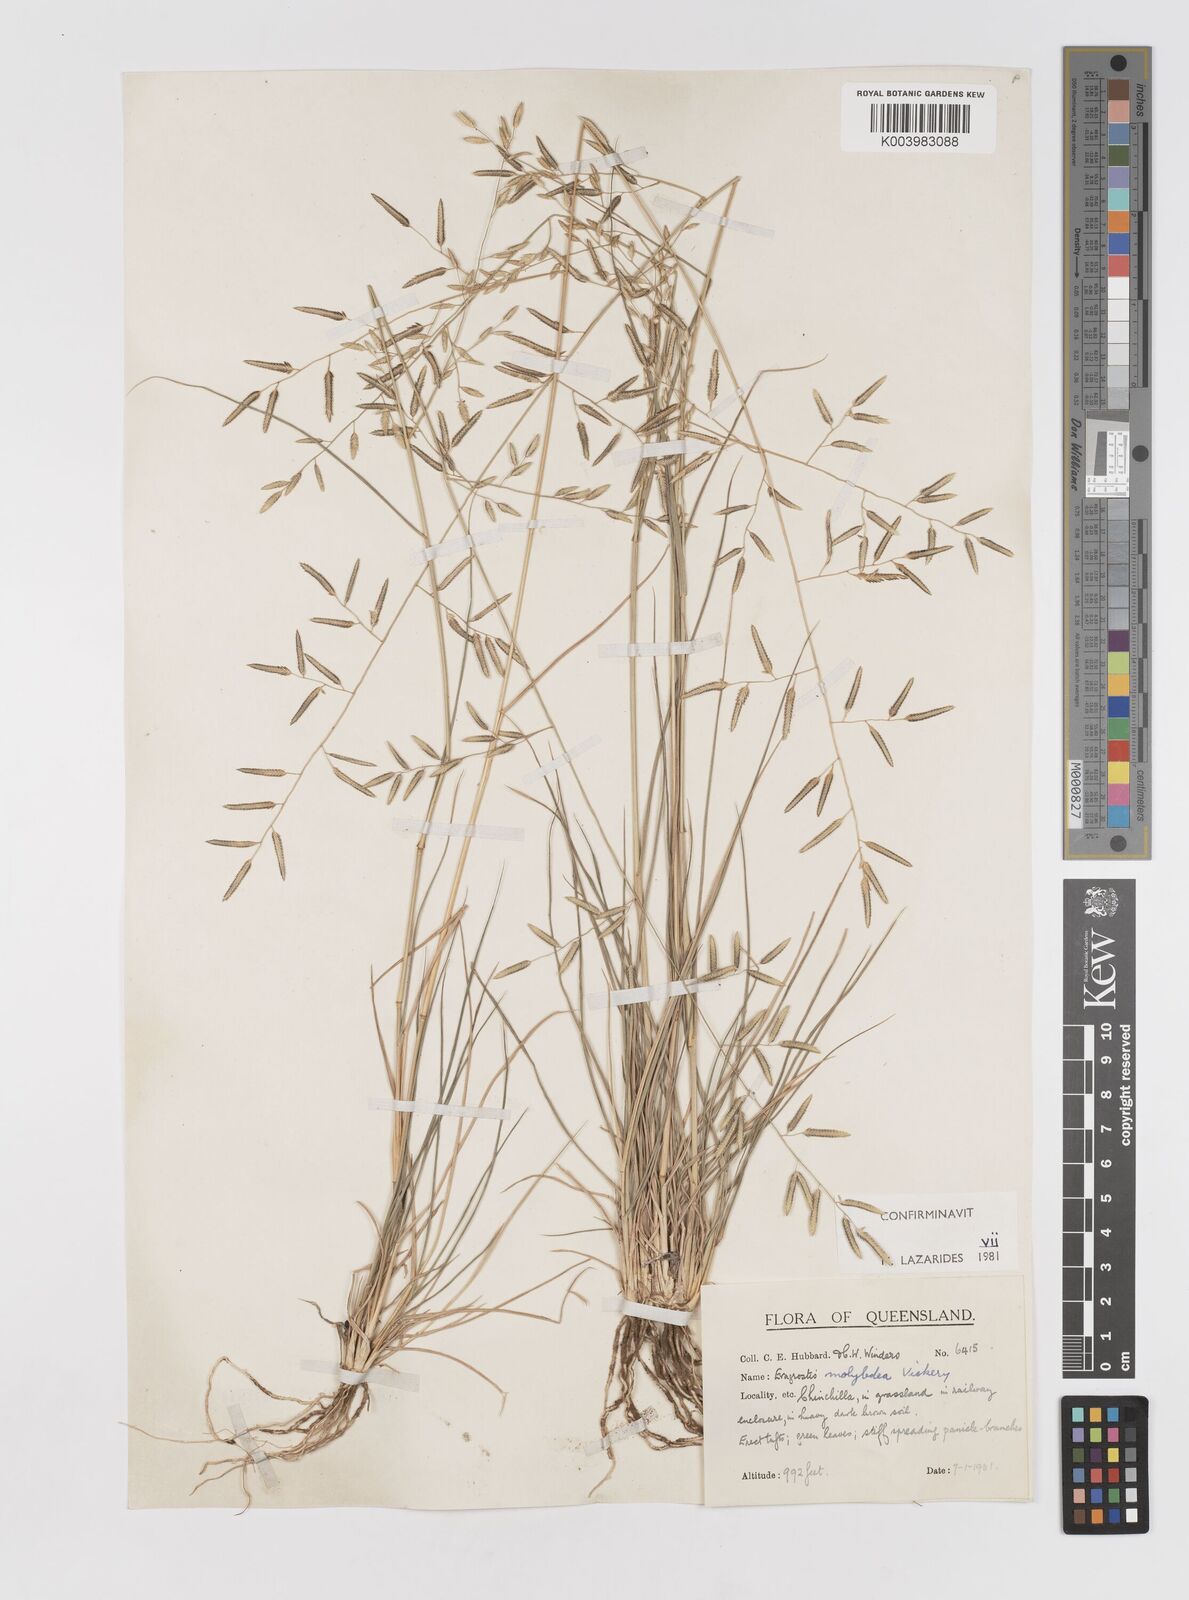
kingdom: Plantae
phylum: Tracheophyta
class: Liliopsida
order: Poales
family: Poaceae
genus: Eragrostis
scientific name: Eragrostis leptostachya
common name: Australian lovegrass
